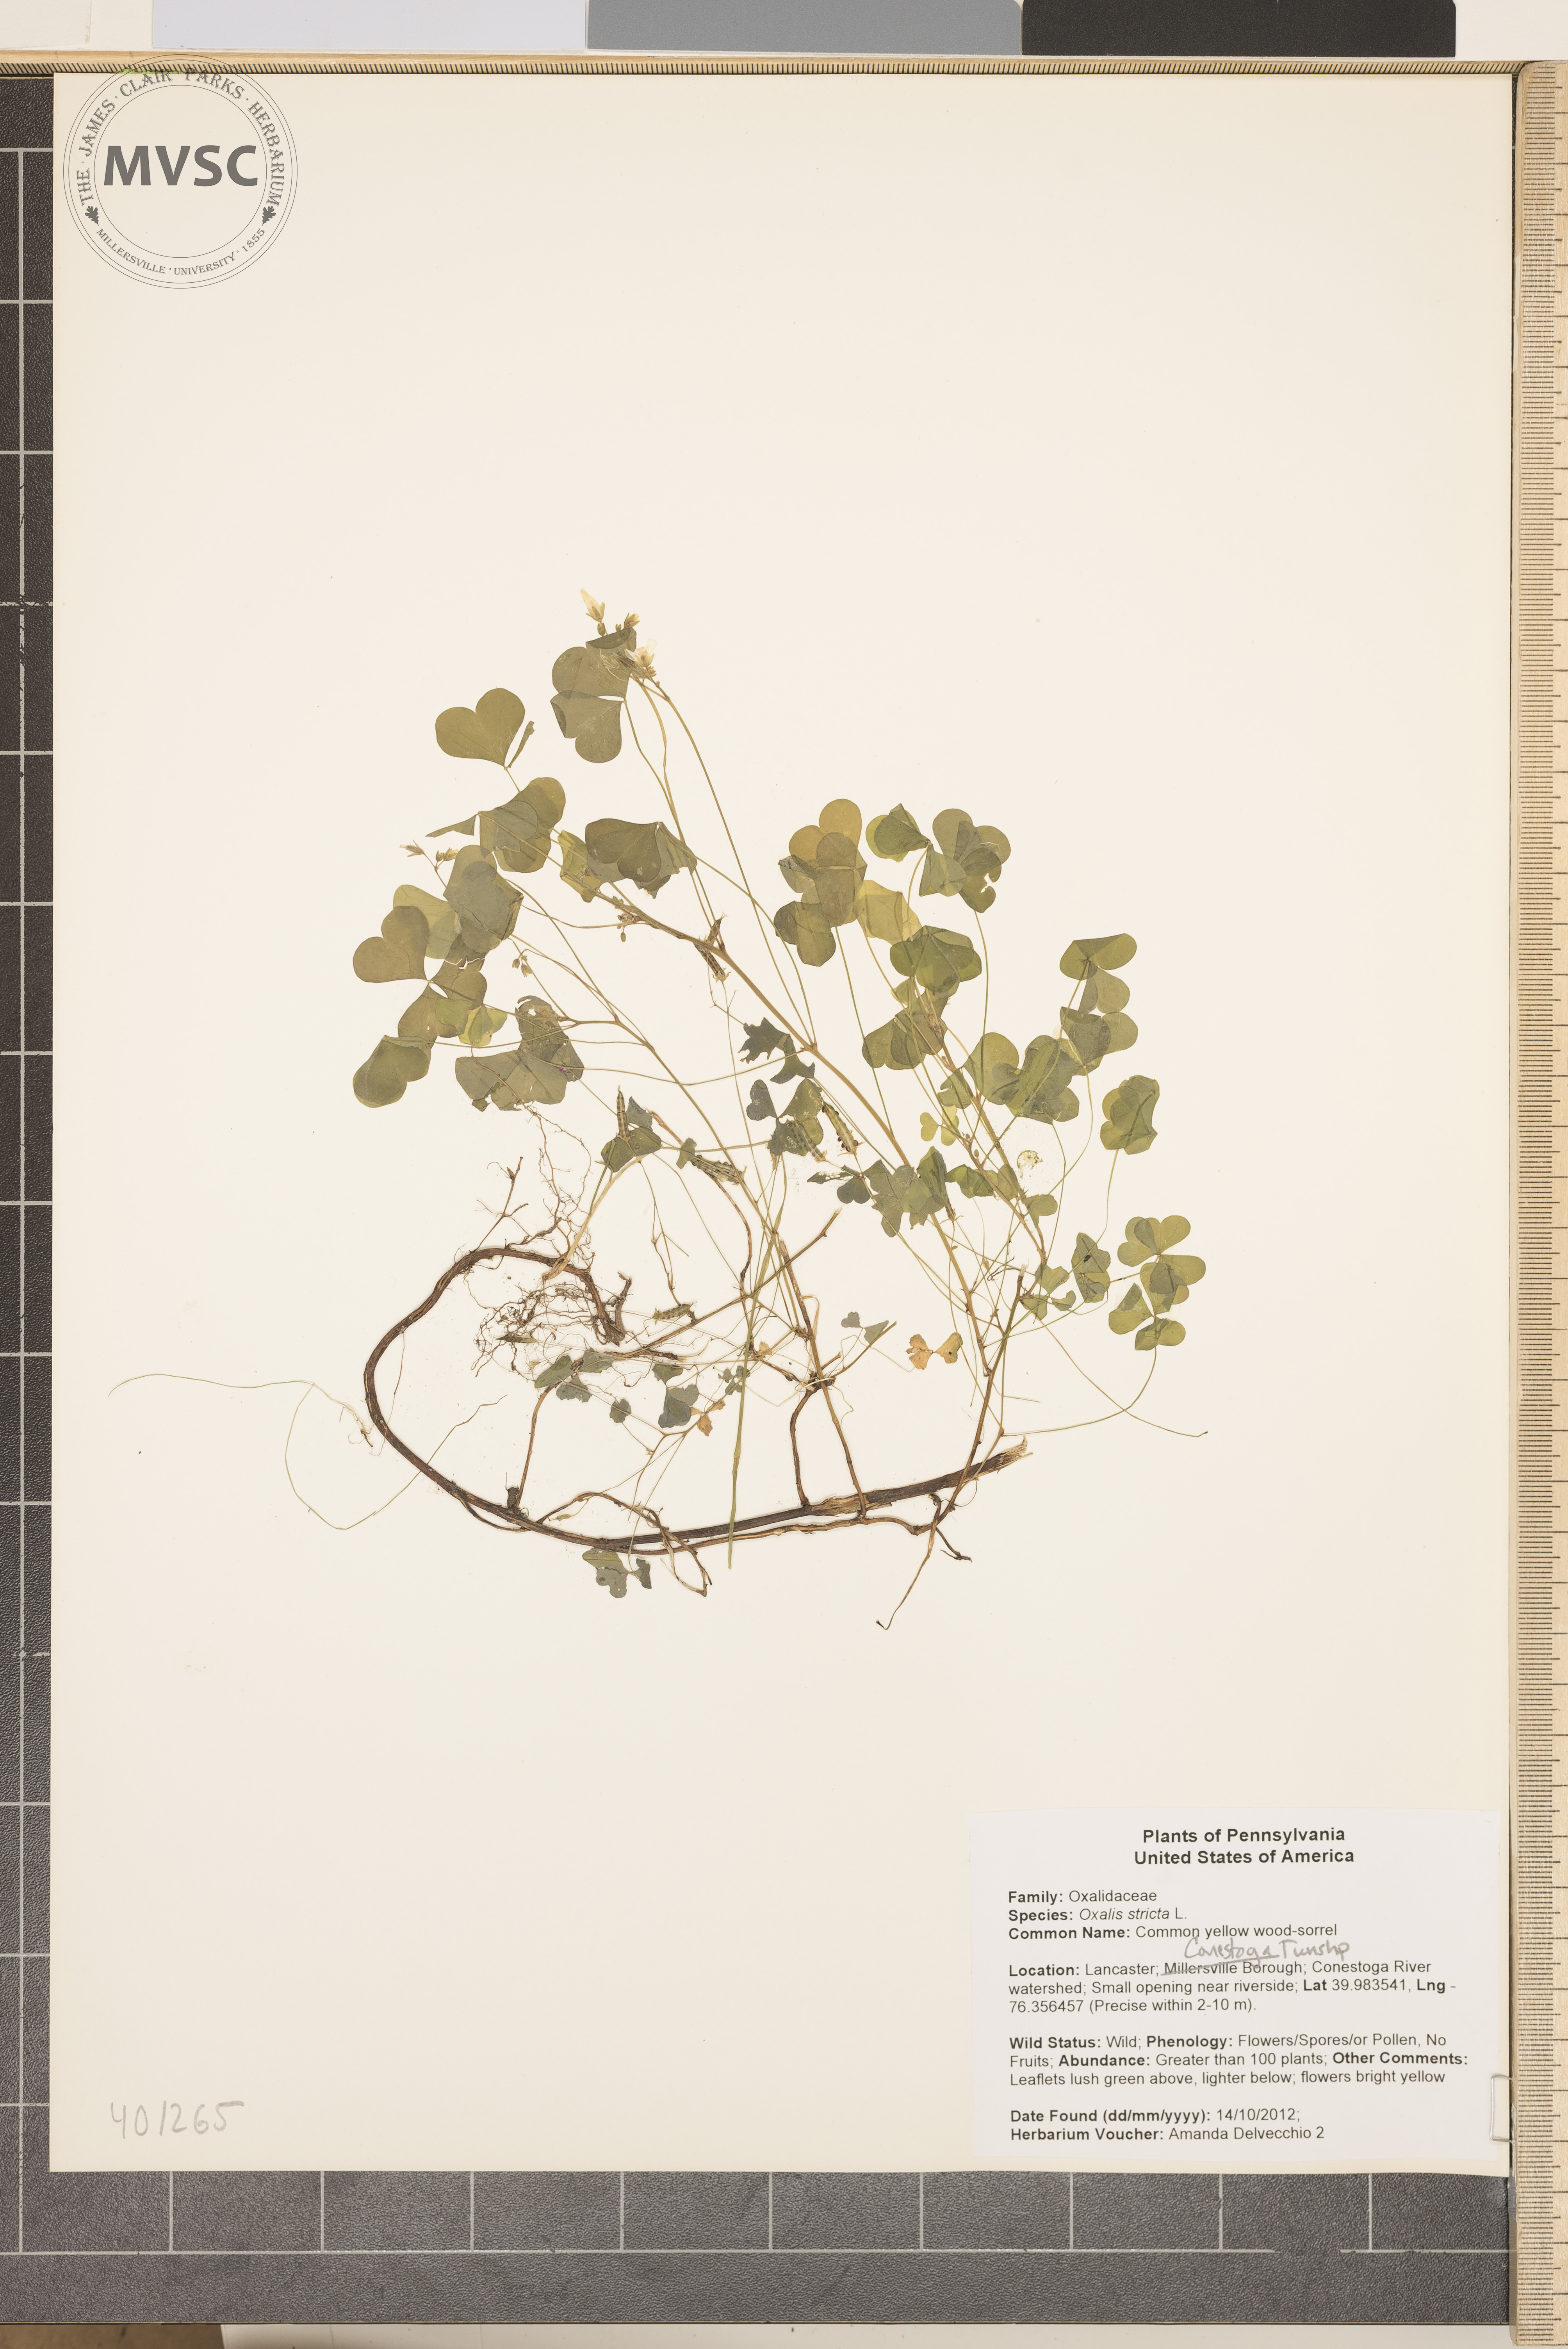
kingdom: Plantae
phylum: Tracheophyta
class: Magnoliopsida
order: Oxalidales
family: Oxalidaceae
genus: Oxalis
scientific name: Oxalis stricta
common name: Common yellow wood-sorrel
